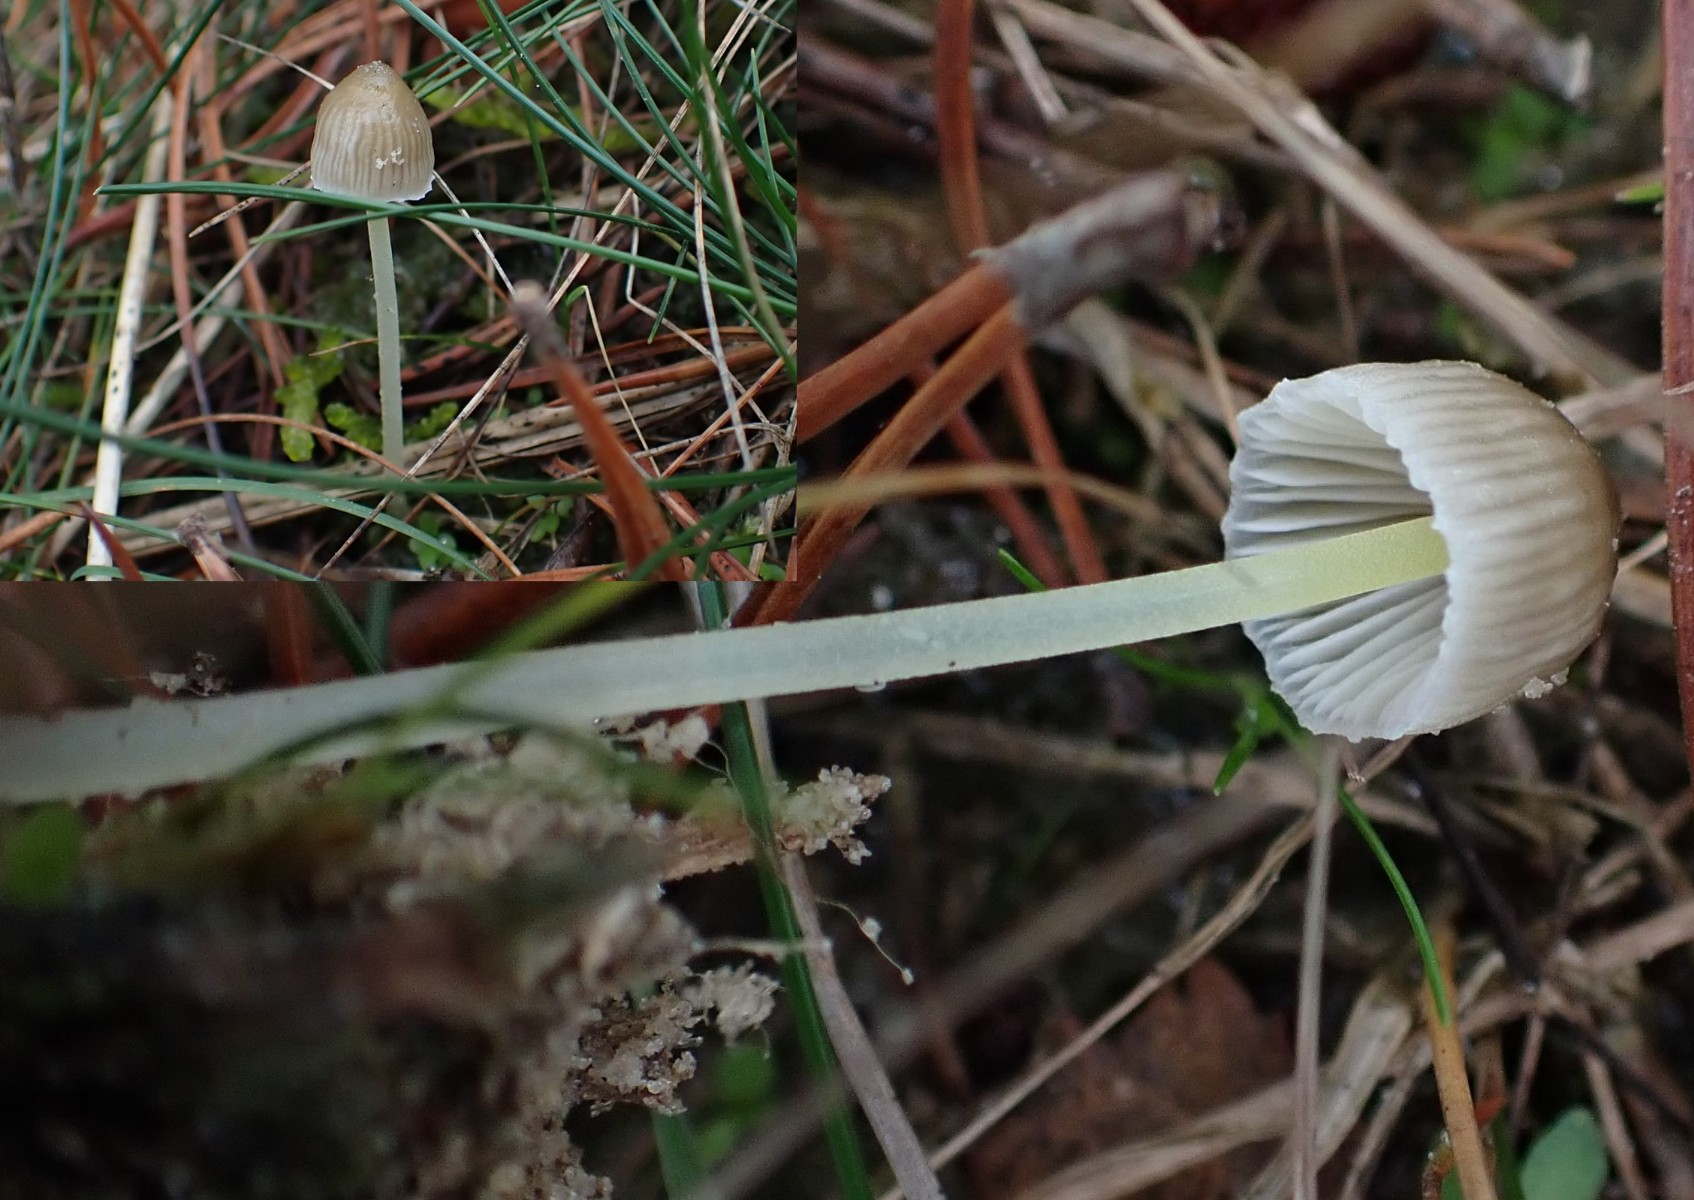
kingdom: Fungi
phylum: Basidiomycota
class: Agaricomycetes
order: Agaricales
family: Mycenaceae
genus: Mycena
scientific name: Mycena epipterygia
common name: gulstokket huesvamp
